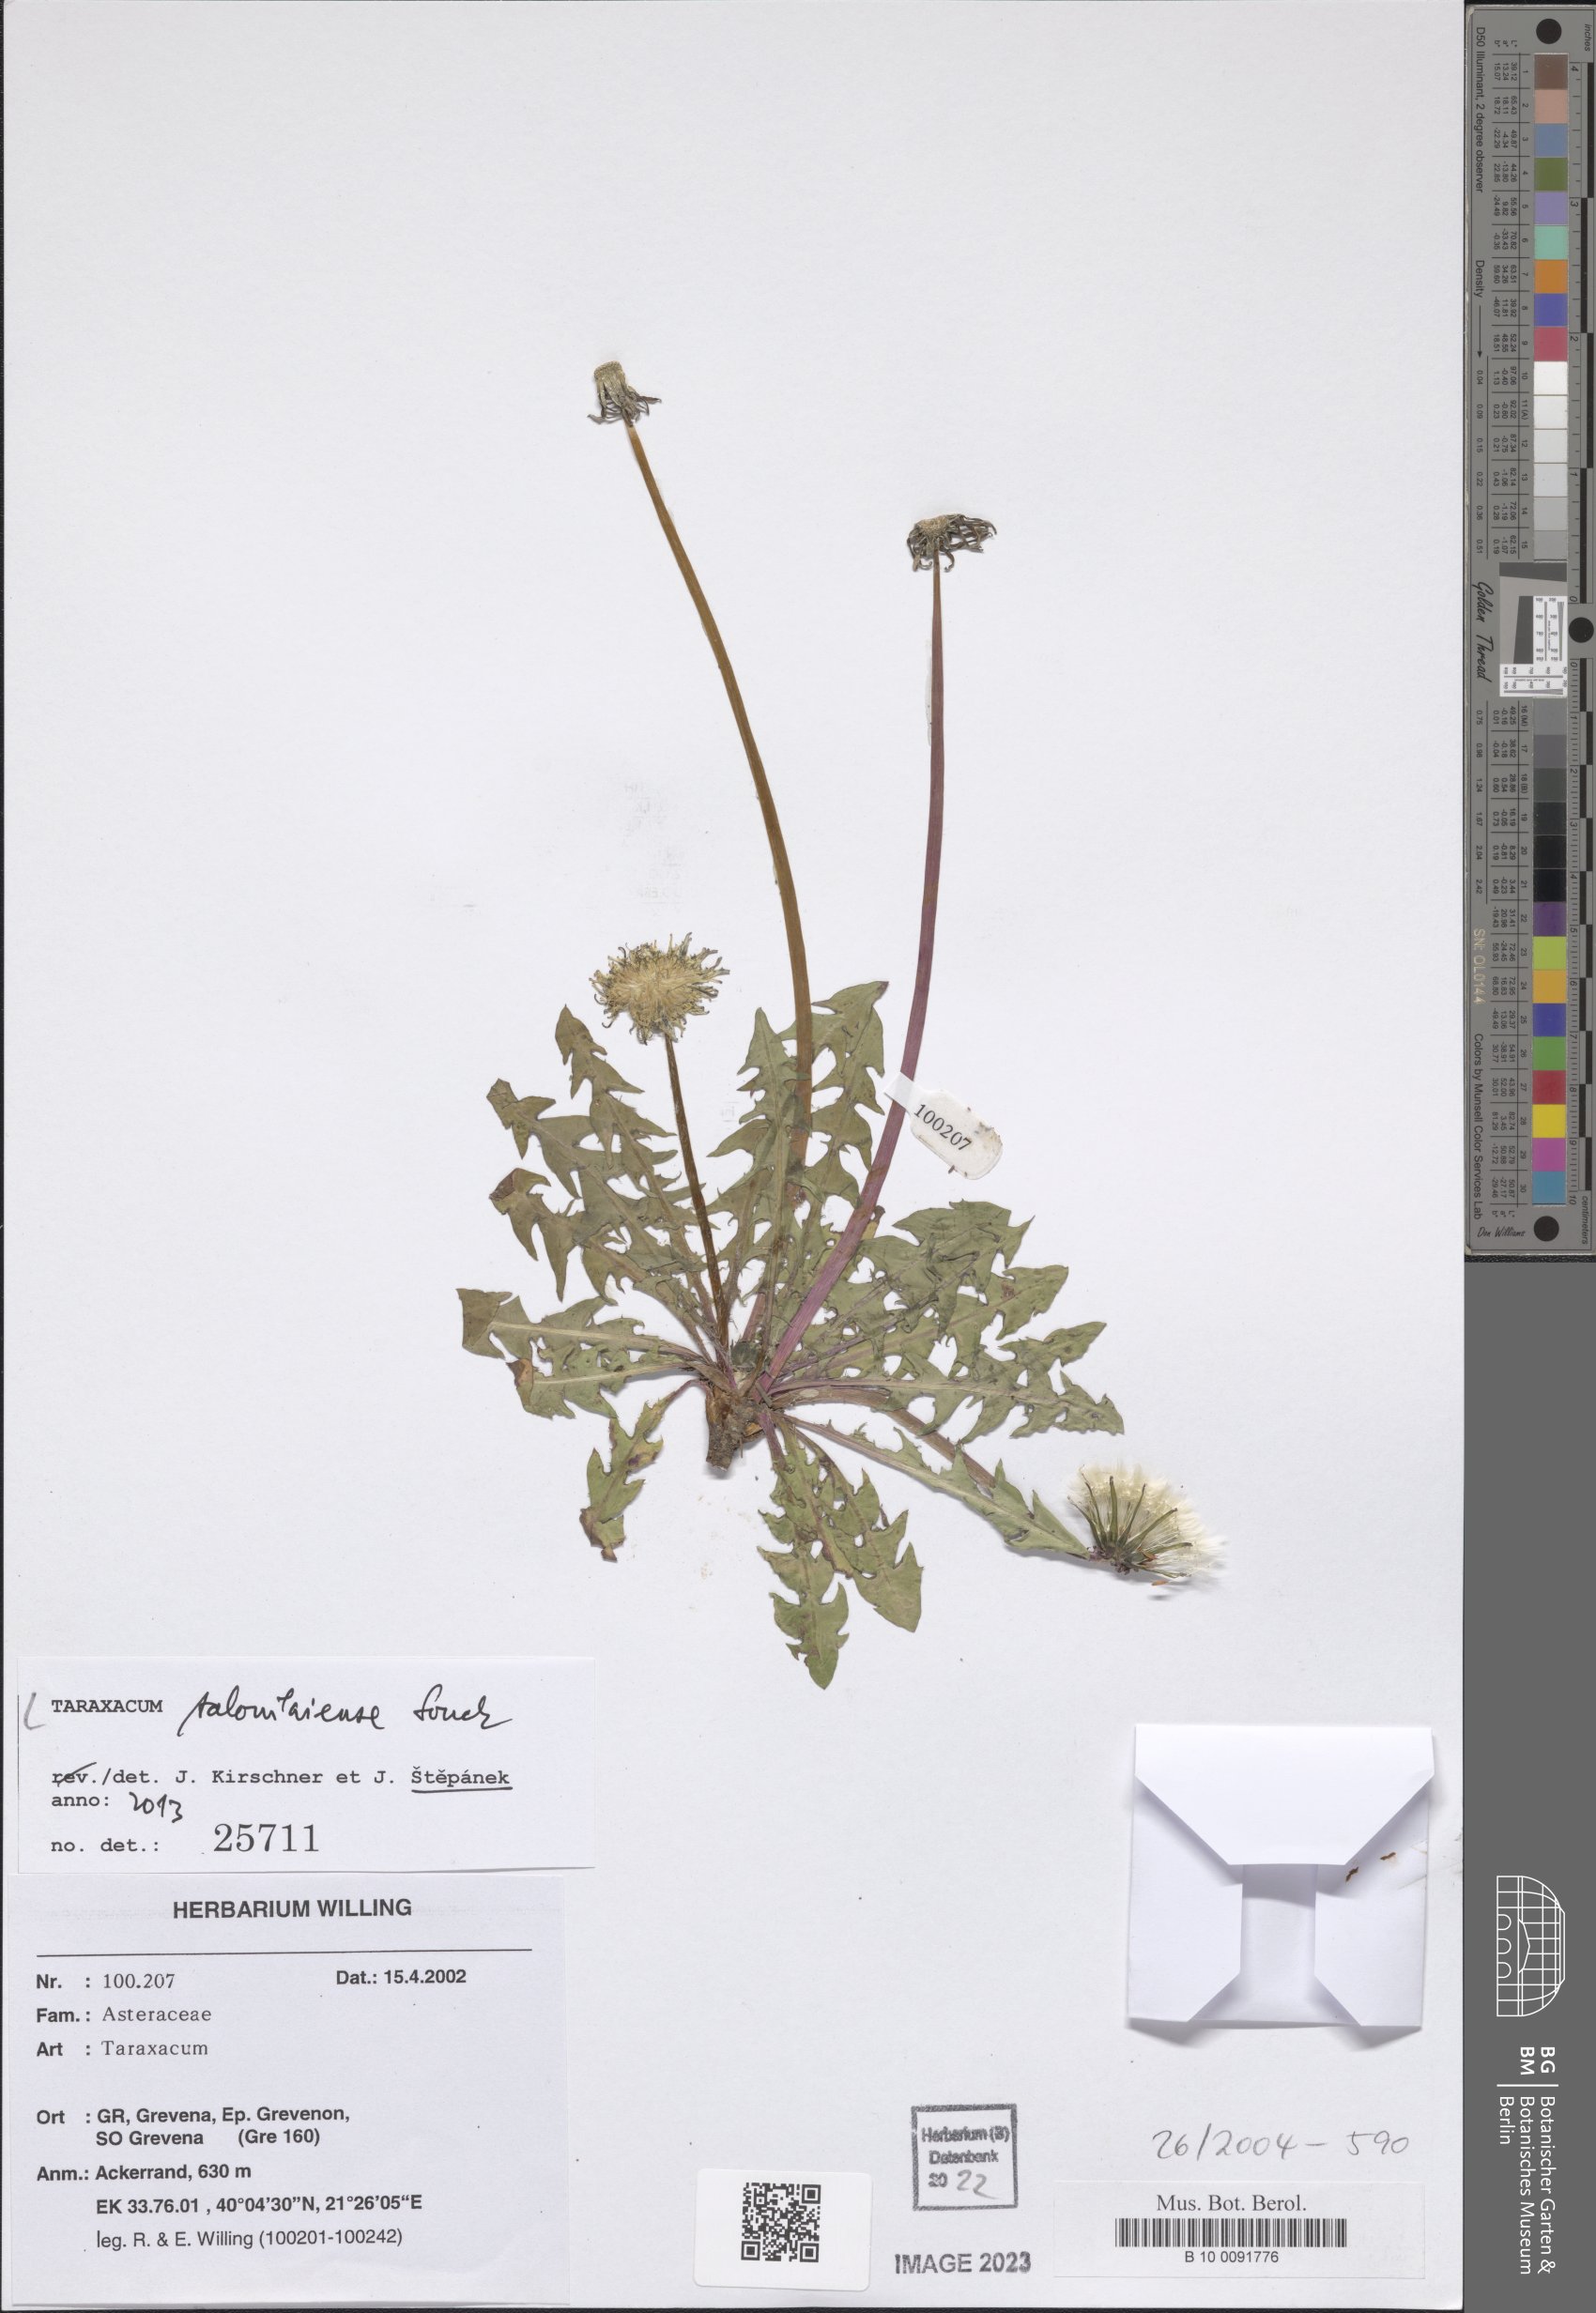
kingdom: Plantae
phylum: Tracheophyta
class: Magnoliopsida
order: Asterales
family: Asteraceae
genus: Taraxacum
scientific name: Taraxacum salonikiense
